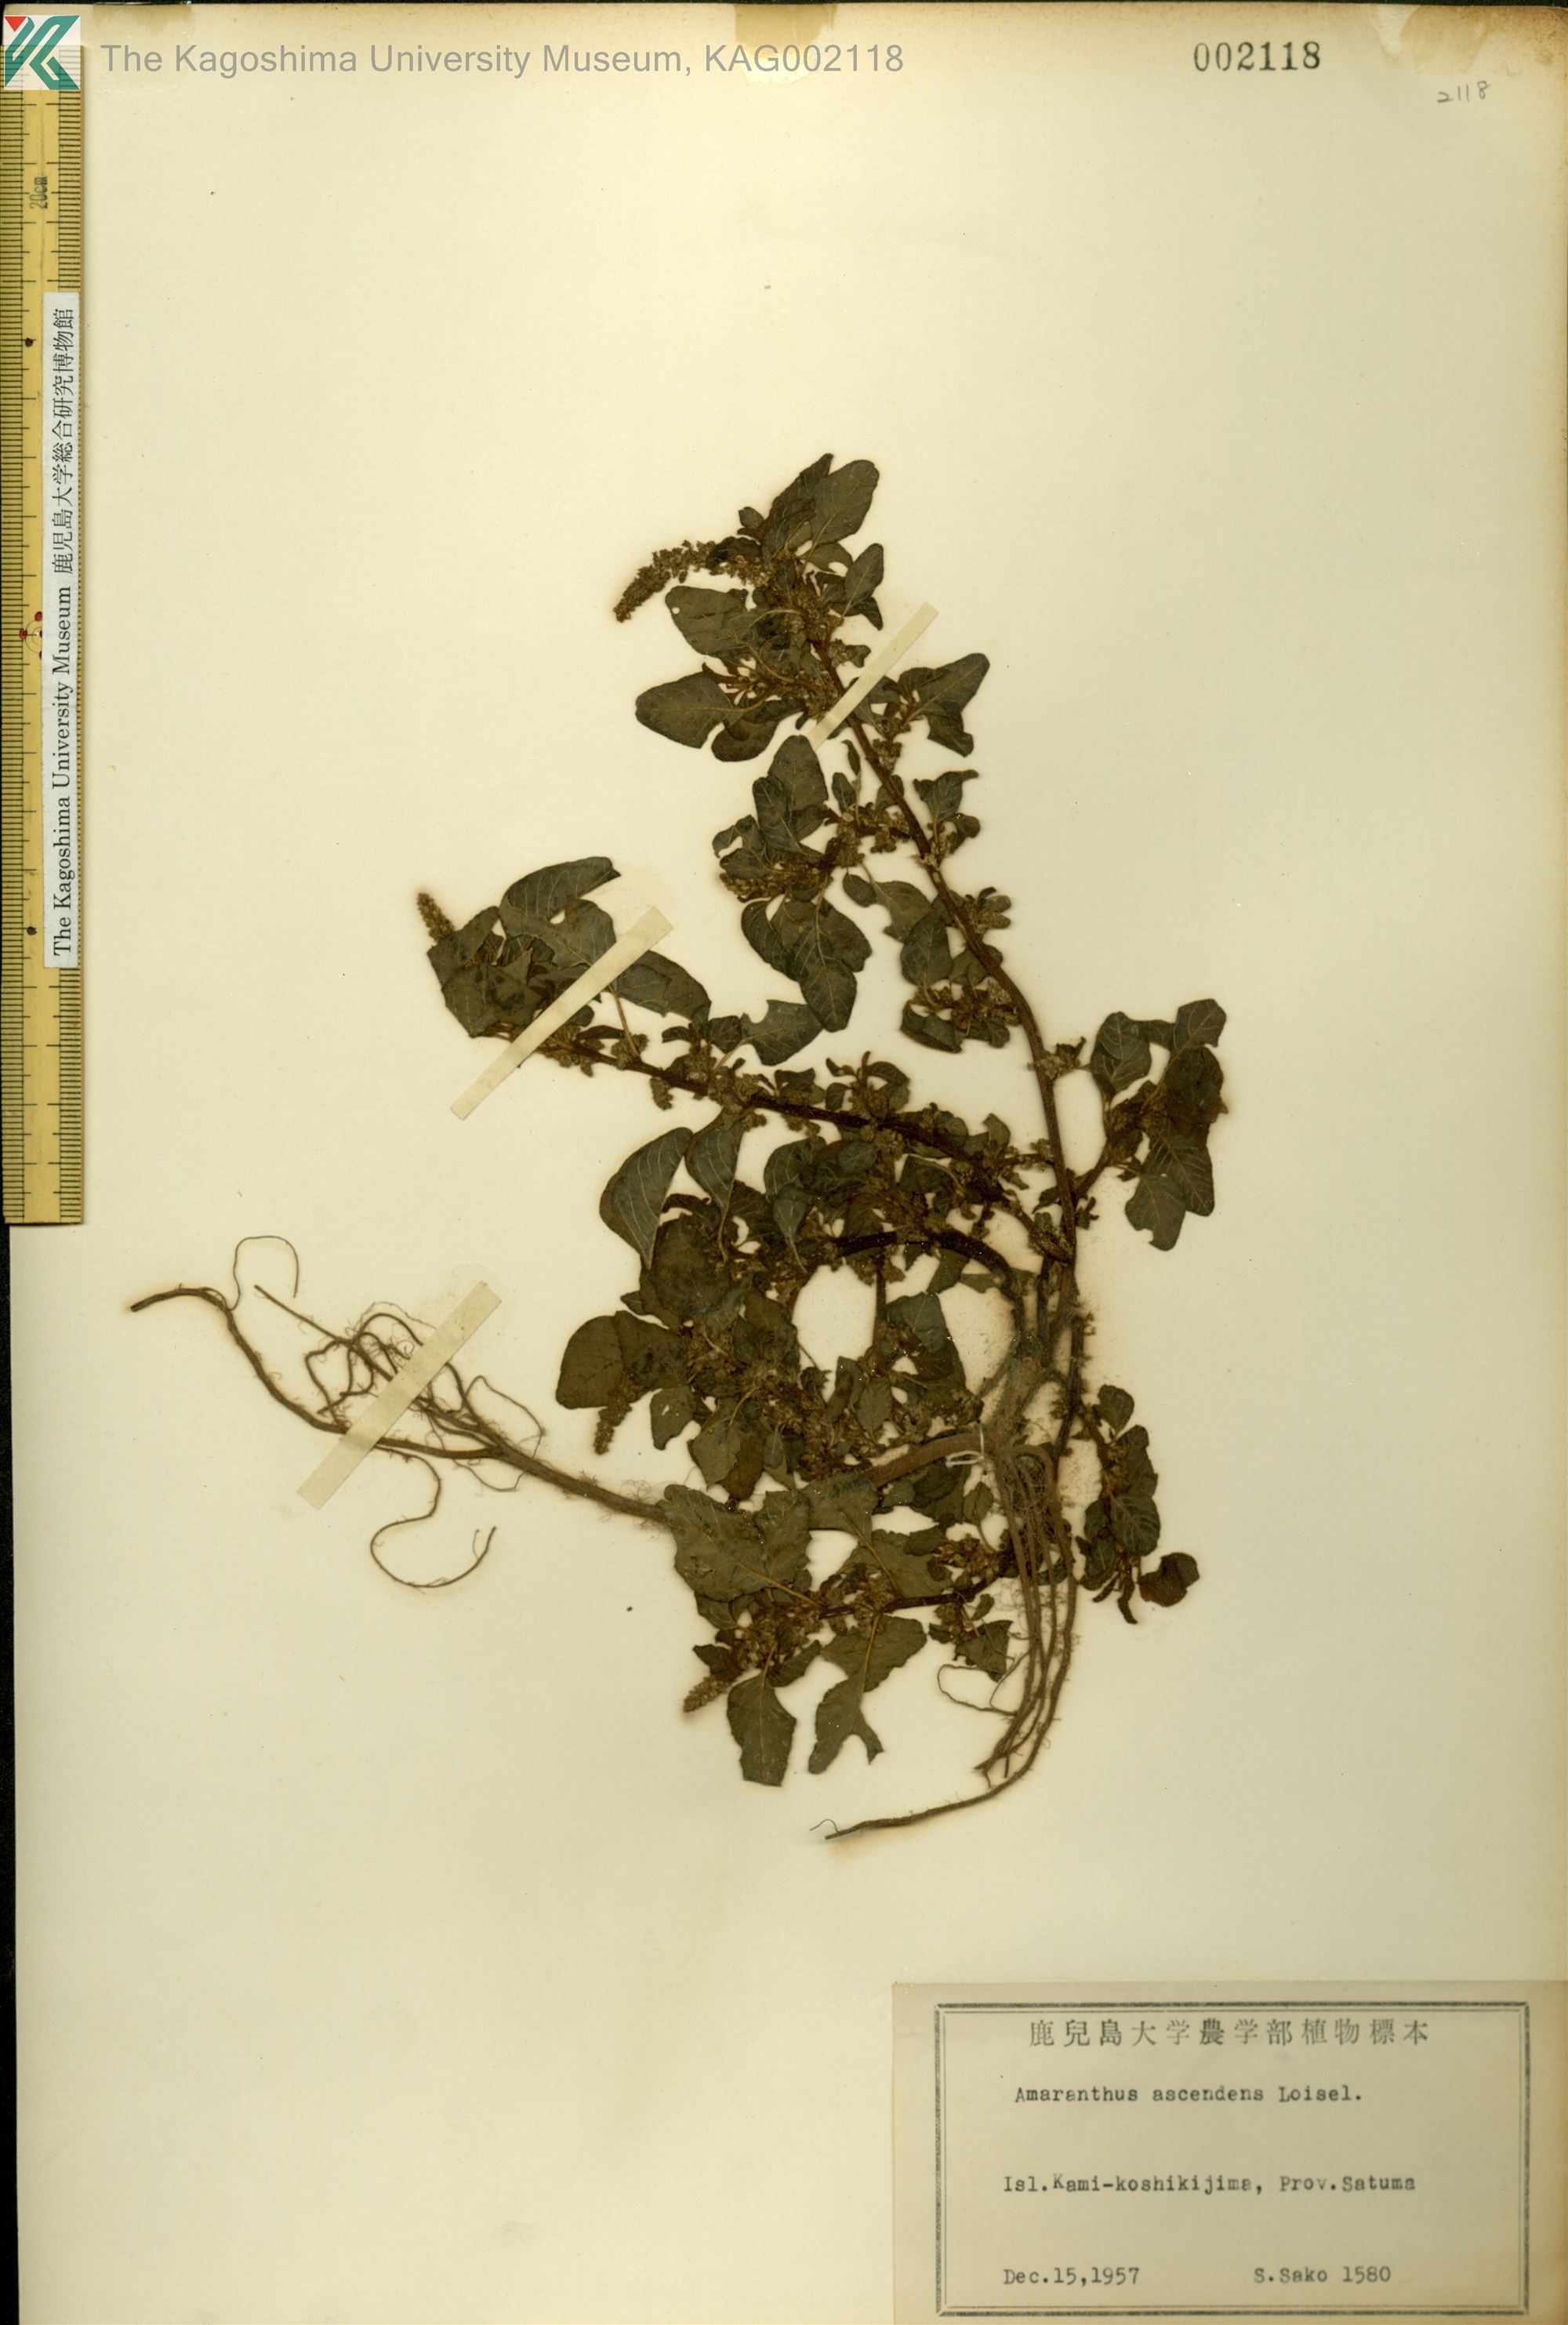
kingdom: Plantae
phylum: Tracheophyta
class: Magnoliopsida
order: Caryophyllales
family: Amaranthaceae
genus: Amaranthus
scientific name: Amaranthus blitum
